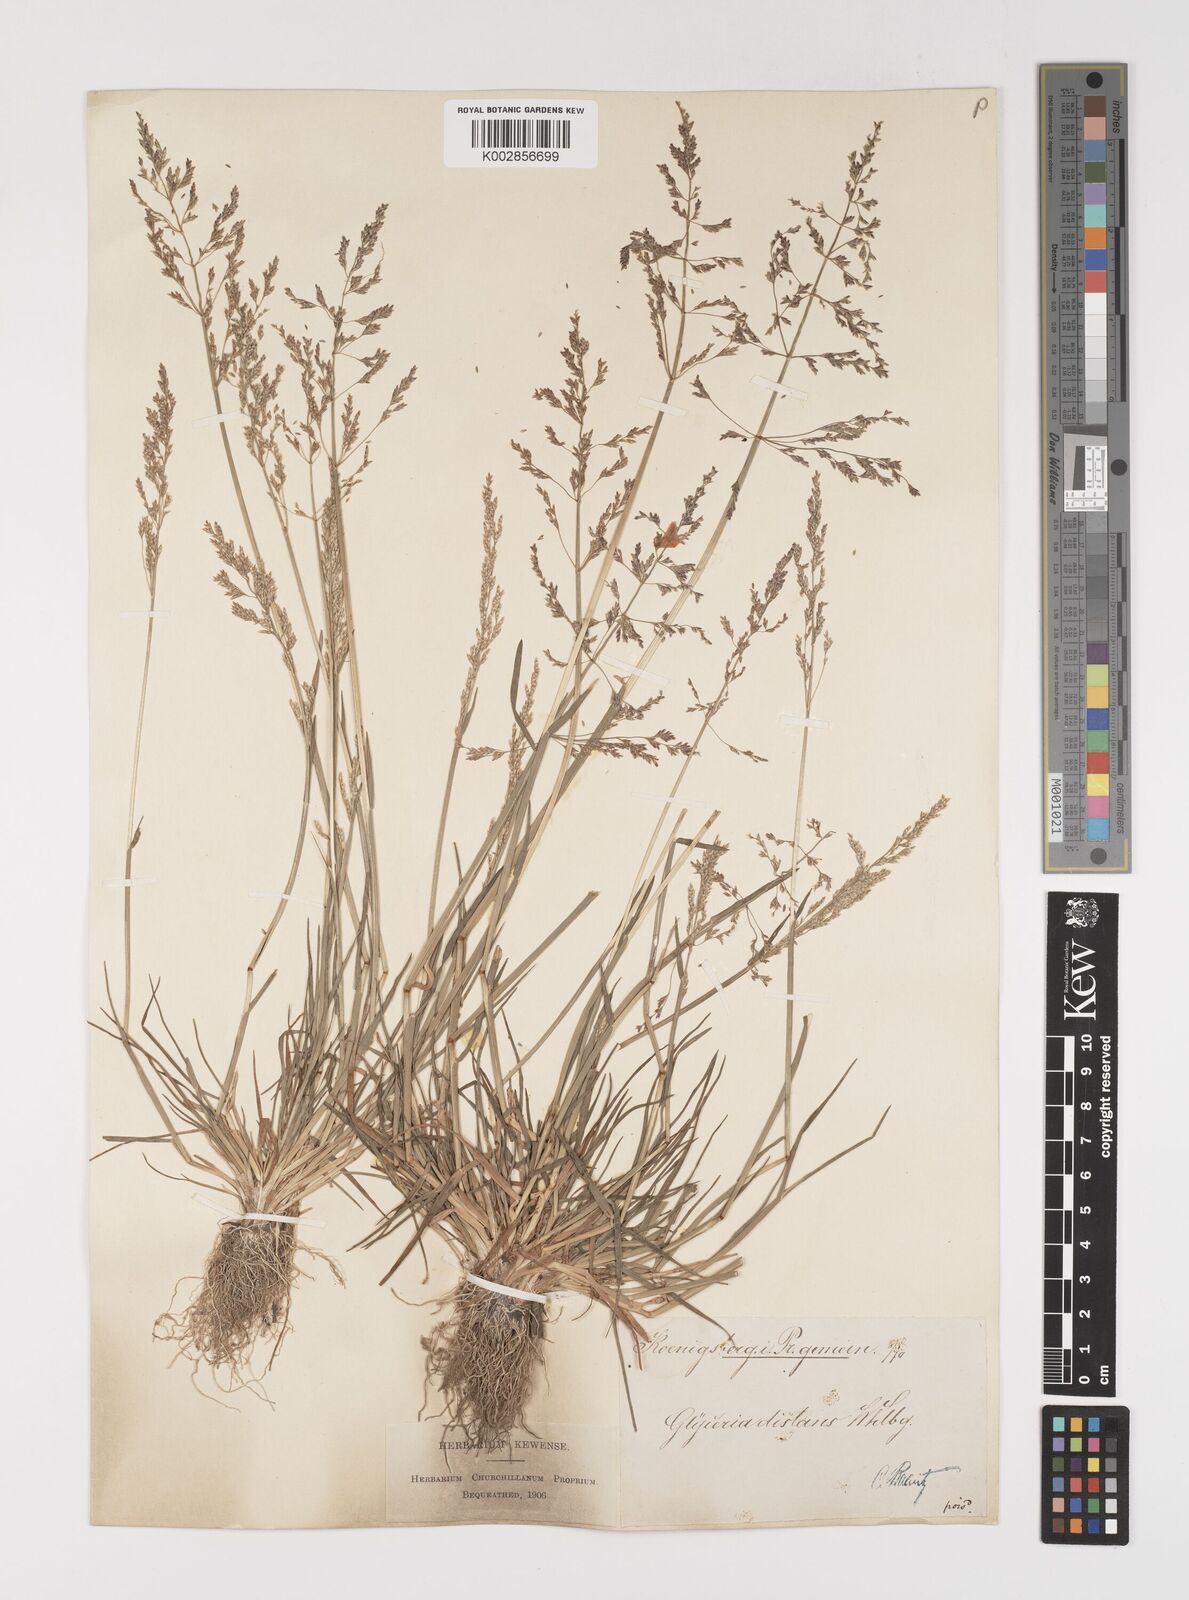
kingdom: Plantae
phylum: Tracheophyta
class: Liliopsida
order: Poales
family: Poaceae
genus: Puccinellia
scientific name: Puccinellia distans
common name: Weeping alkaligrass
